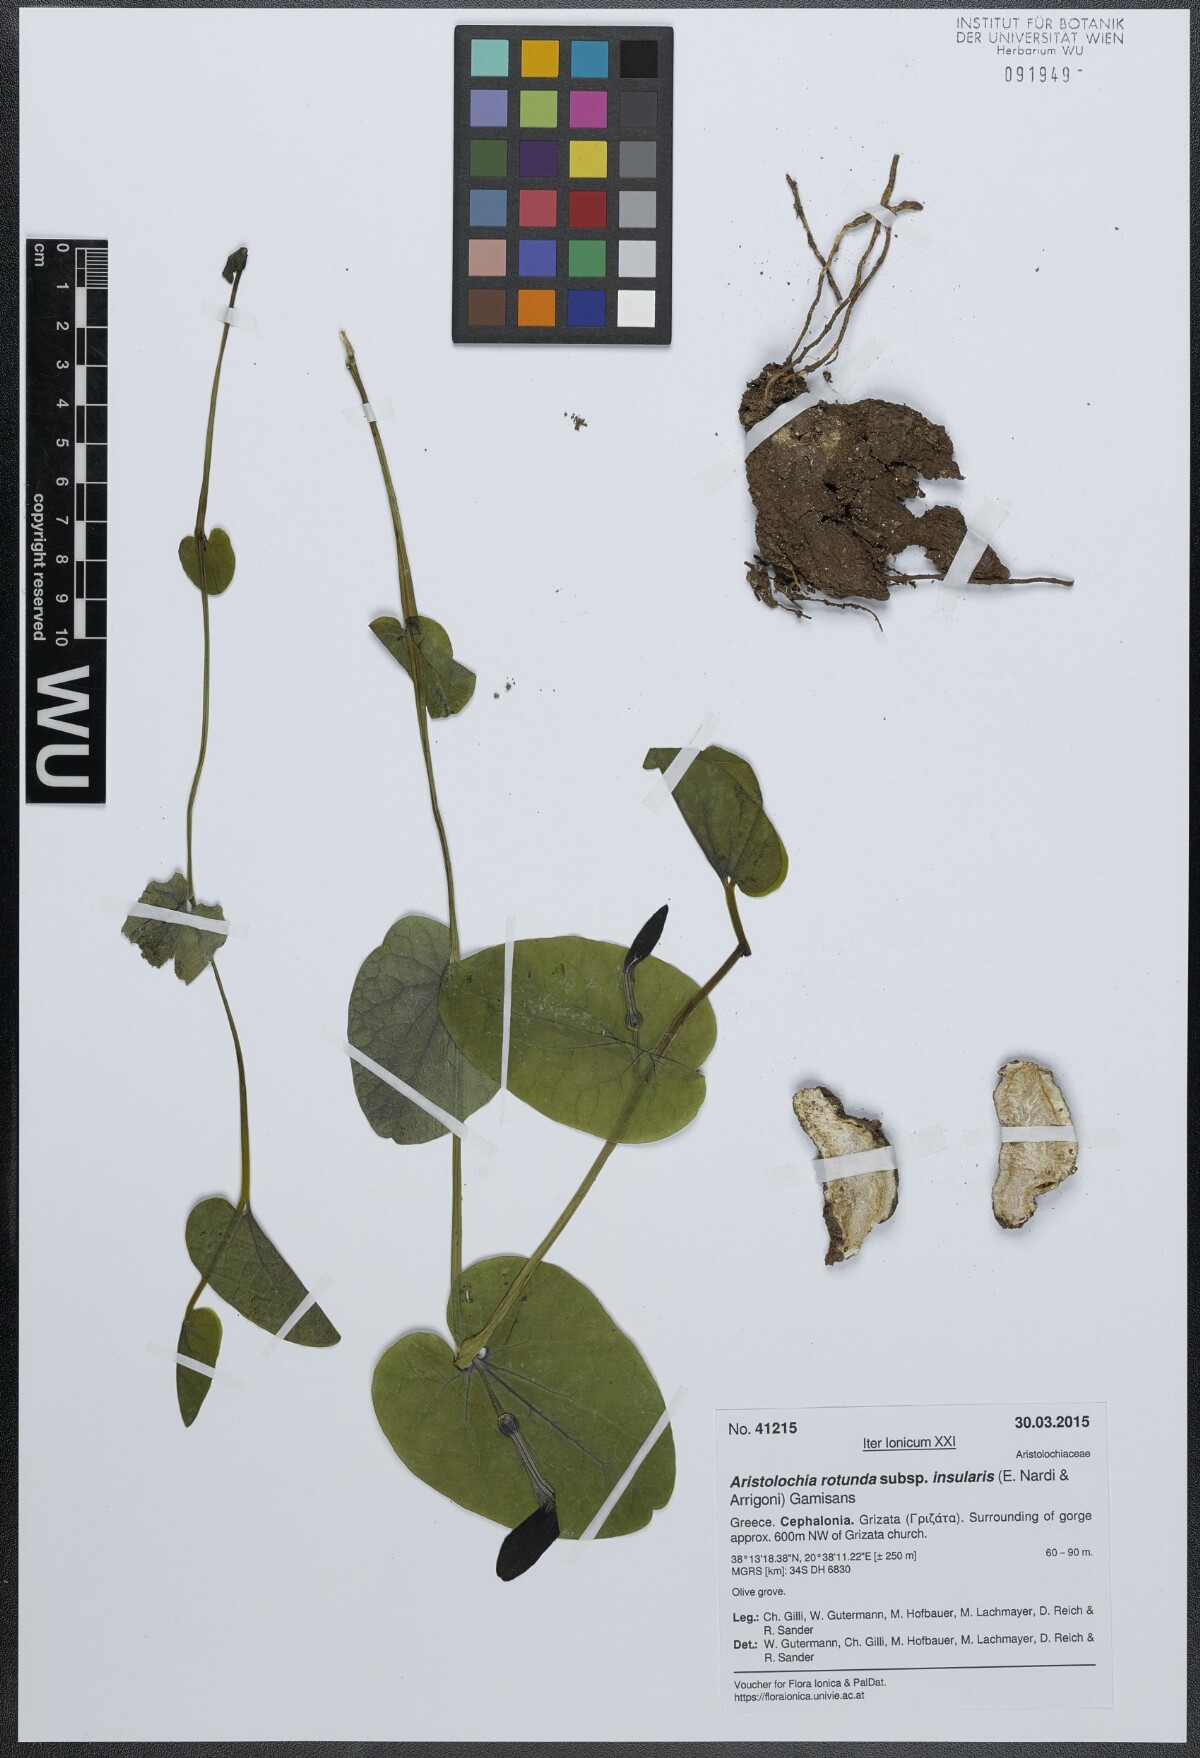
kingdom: Plantae
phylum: Tracheophyta
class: Magnoliopsida
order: Piperales
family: Aristolochiaceae
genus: Aristolochia
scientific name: Aristolochia rotunda
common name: Smearwort
